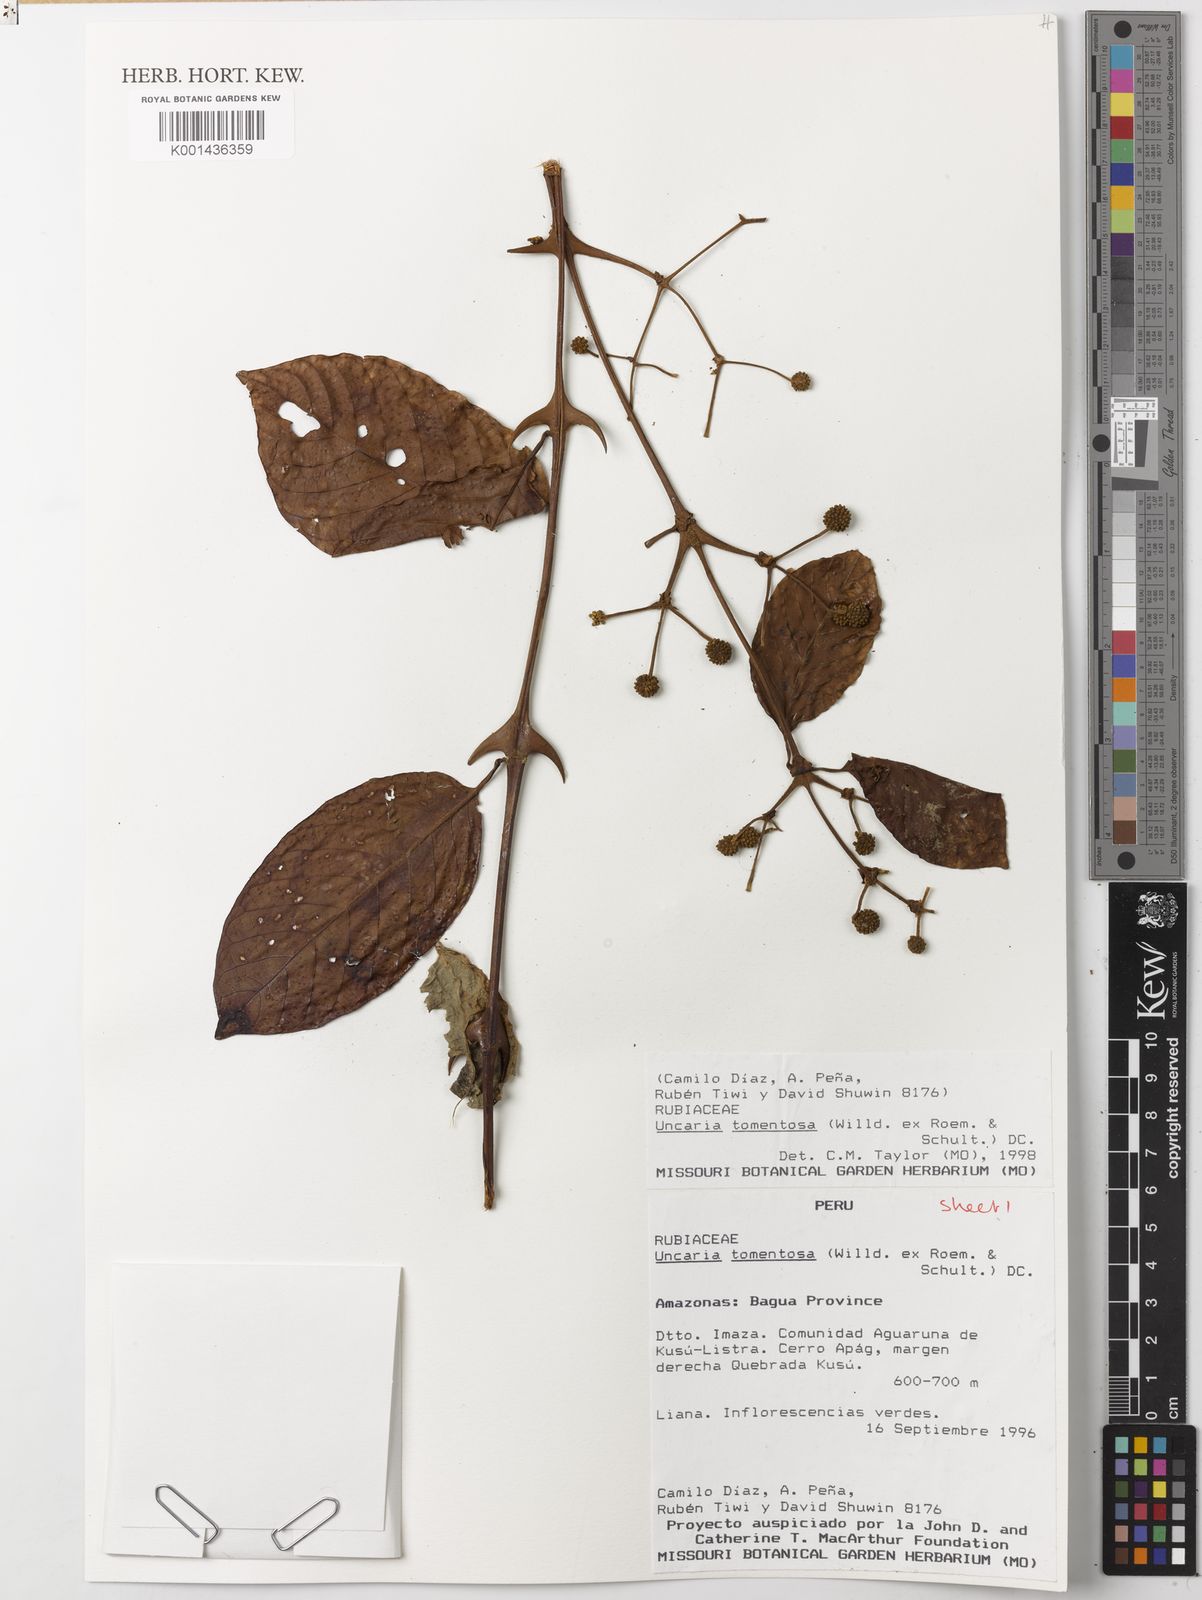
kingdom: Plantae
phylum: Tracheophyta
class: Magnoliopsida
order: Gentianales
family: Rubiaceae
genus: Uncaria
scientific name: Uncaria tomentosa
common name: Cat's-claw
